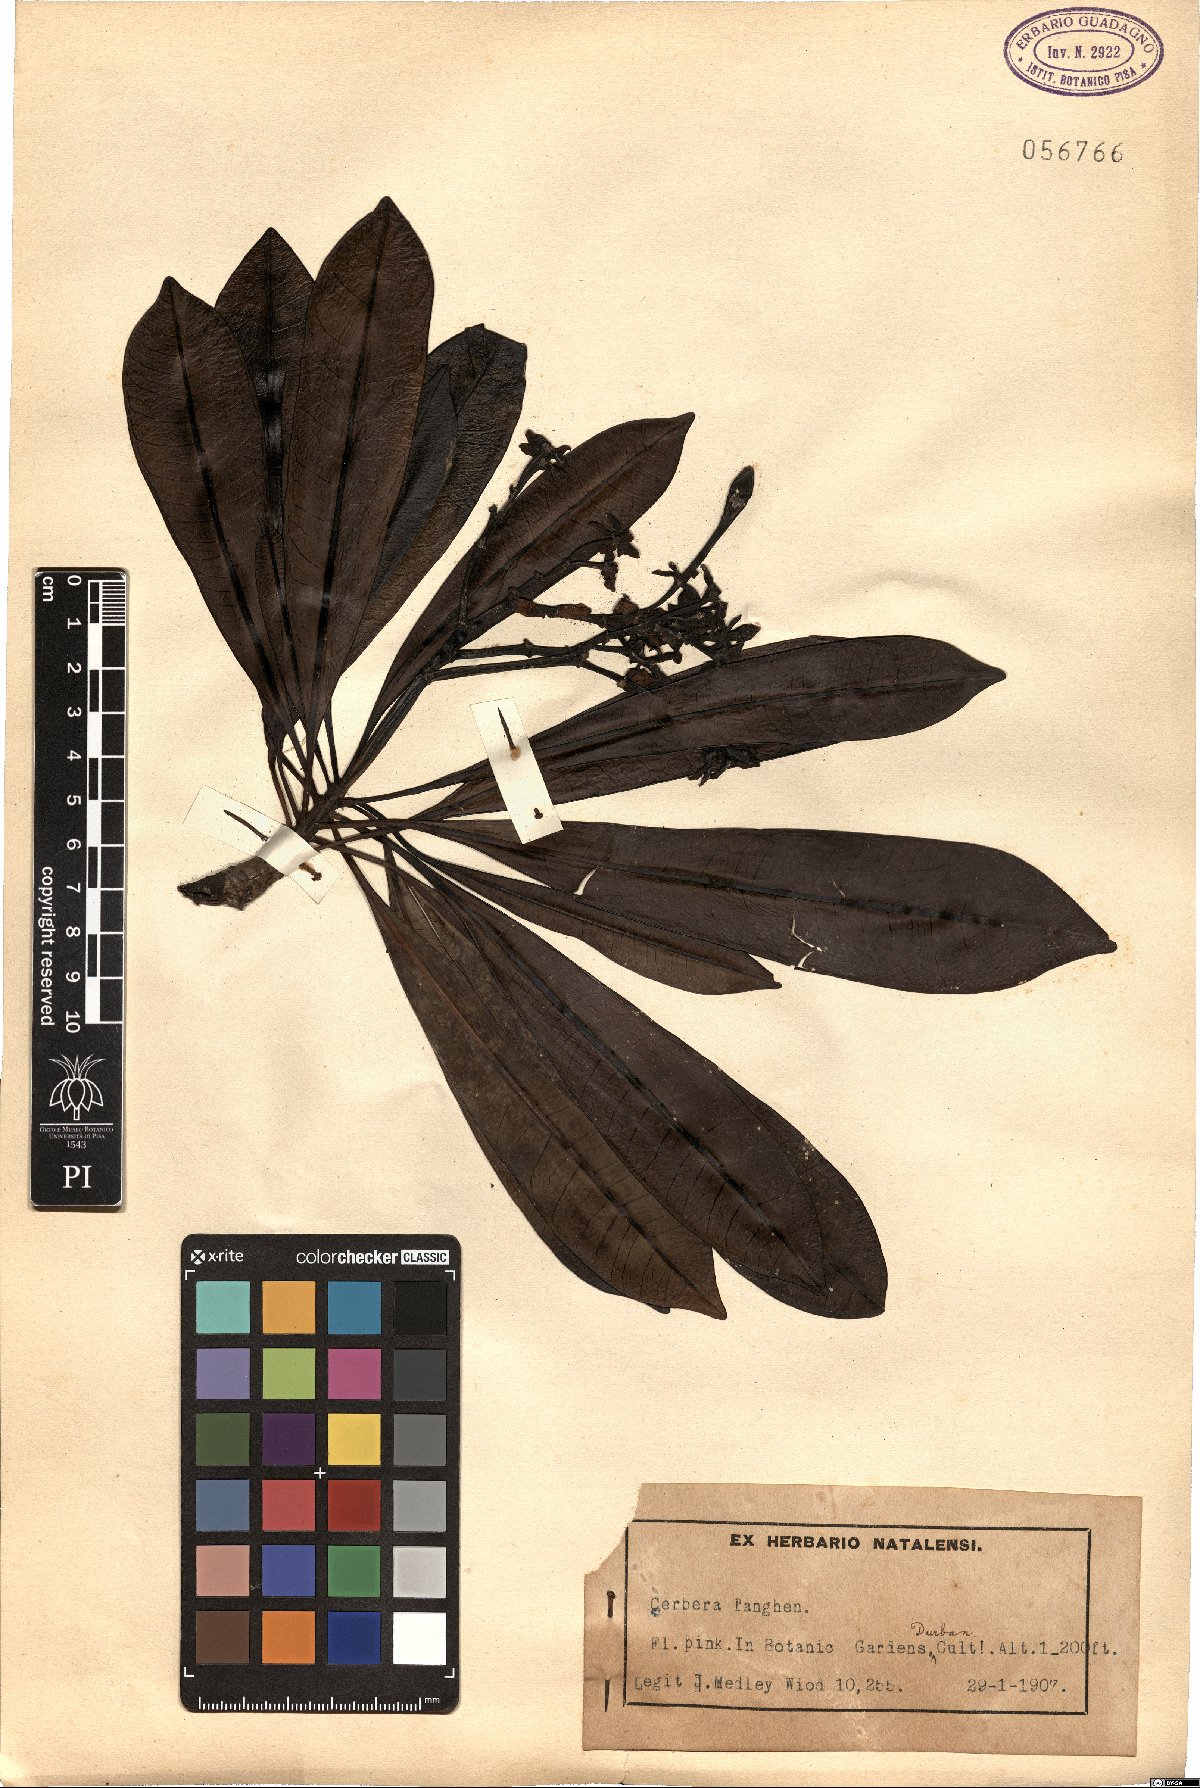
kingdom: Plantae
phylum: Tracheophyta
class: Magnoliopsida
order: Gentianales
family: Apocynaceae
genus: Cerbera
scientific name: Cerbera manghas
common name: Reva
